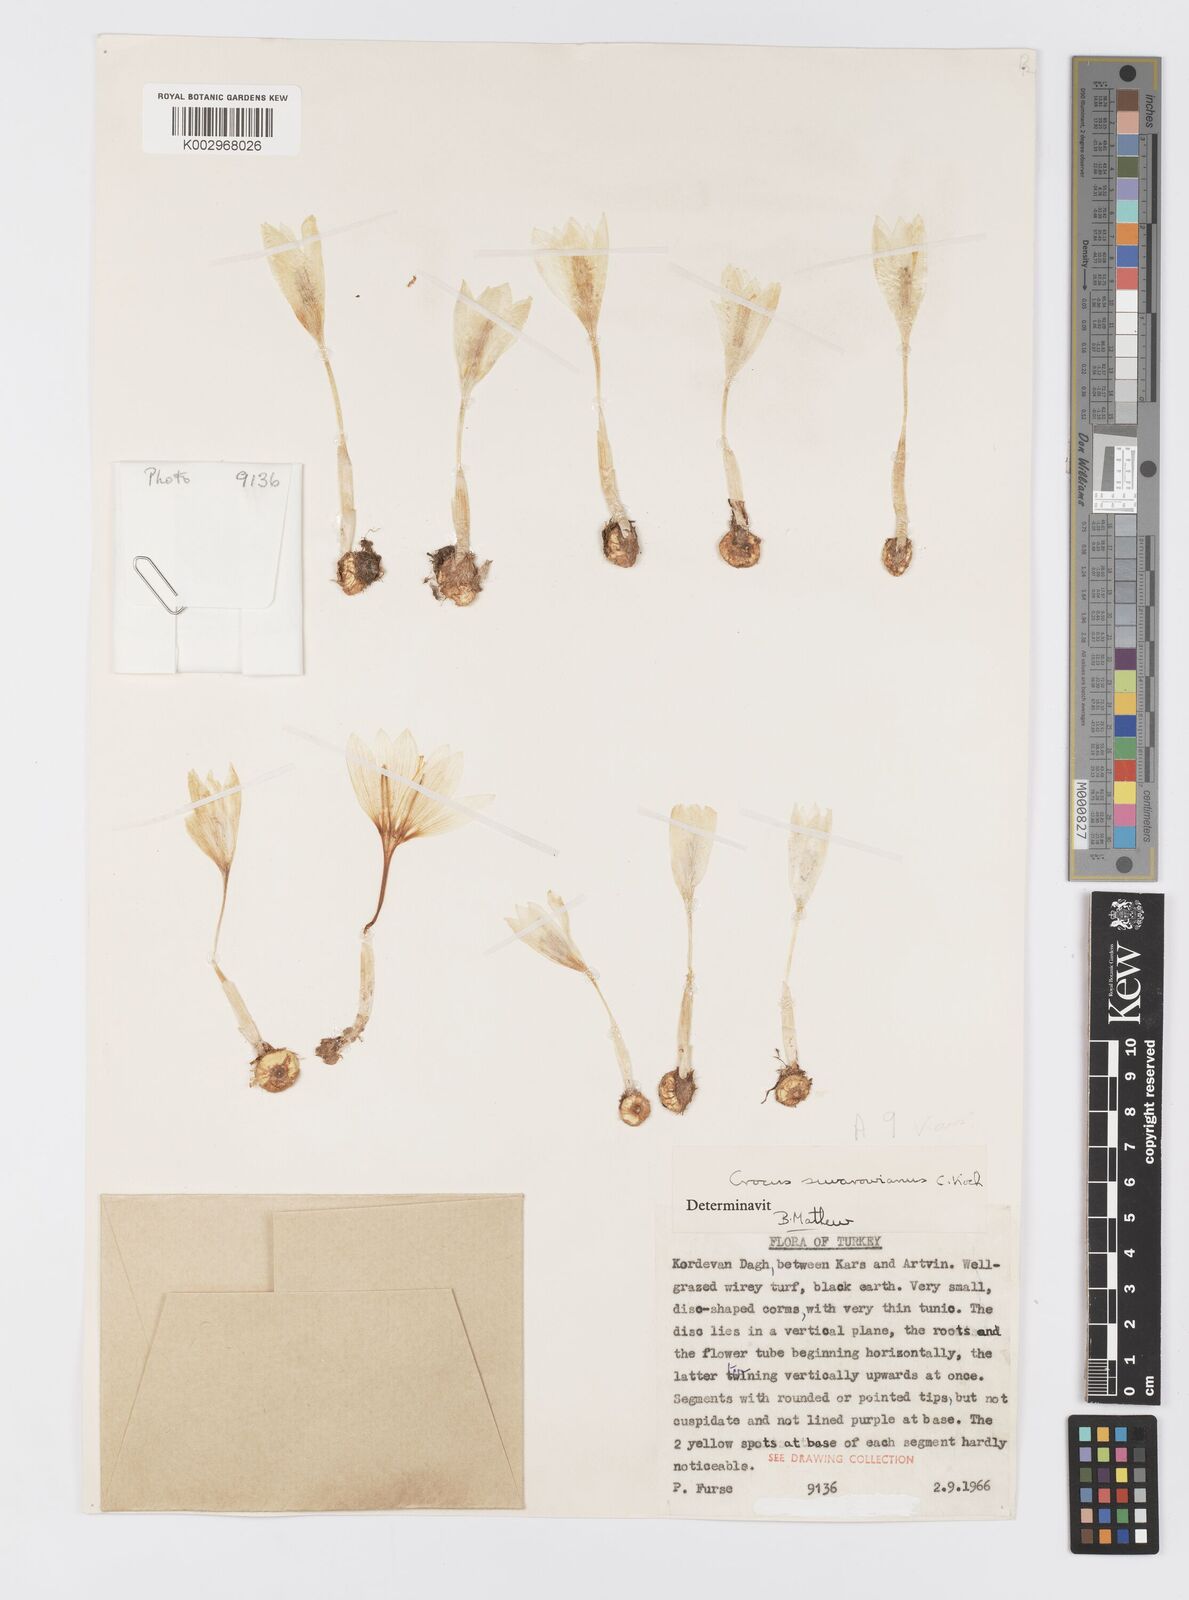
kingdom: Plantae
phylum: Tracheophyta
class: Liliopsida
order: Asparagales
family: Iridaceae
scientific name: Iridaceae
